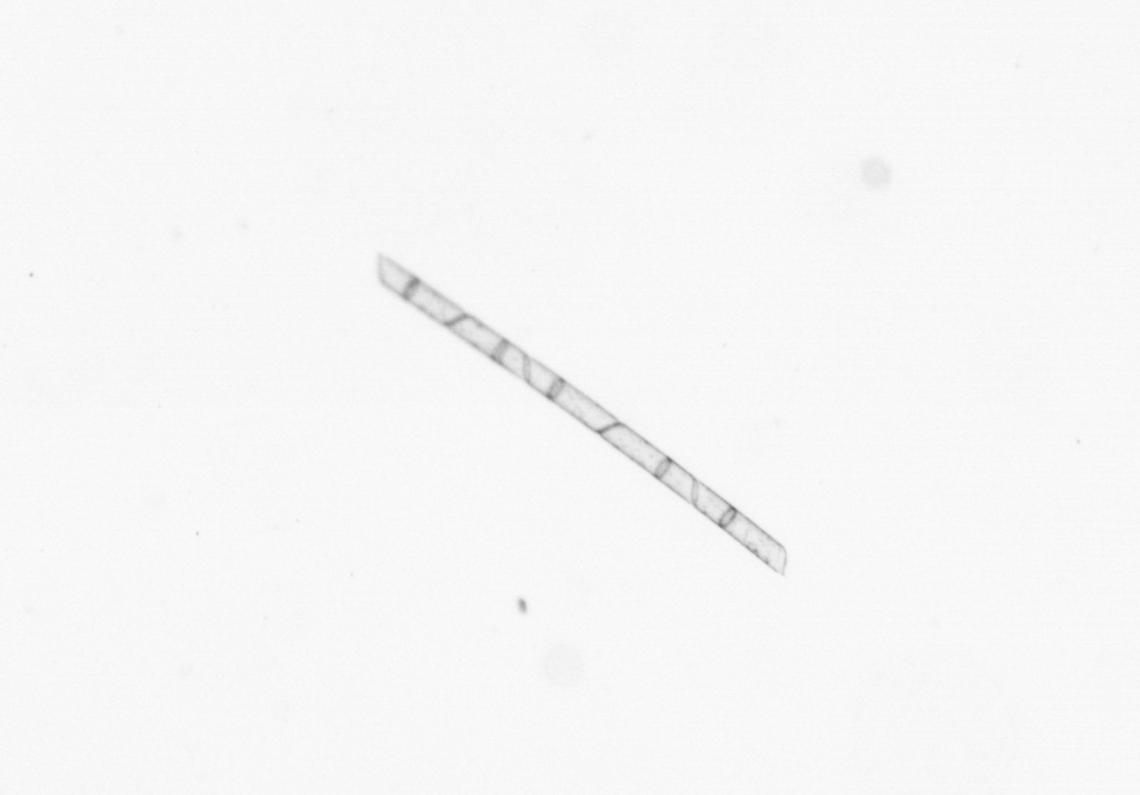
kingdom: Chromista
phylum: Ochrophyta
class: Bacillariophyceae
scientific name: Bacillariophyceae
